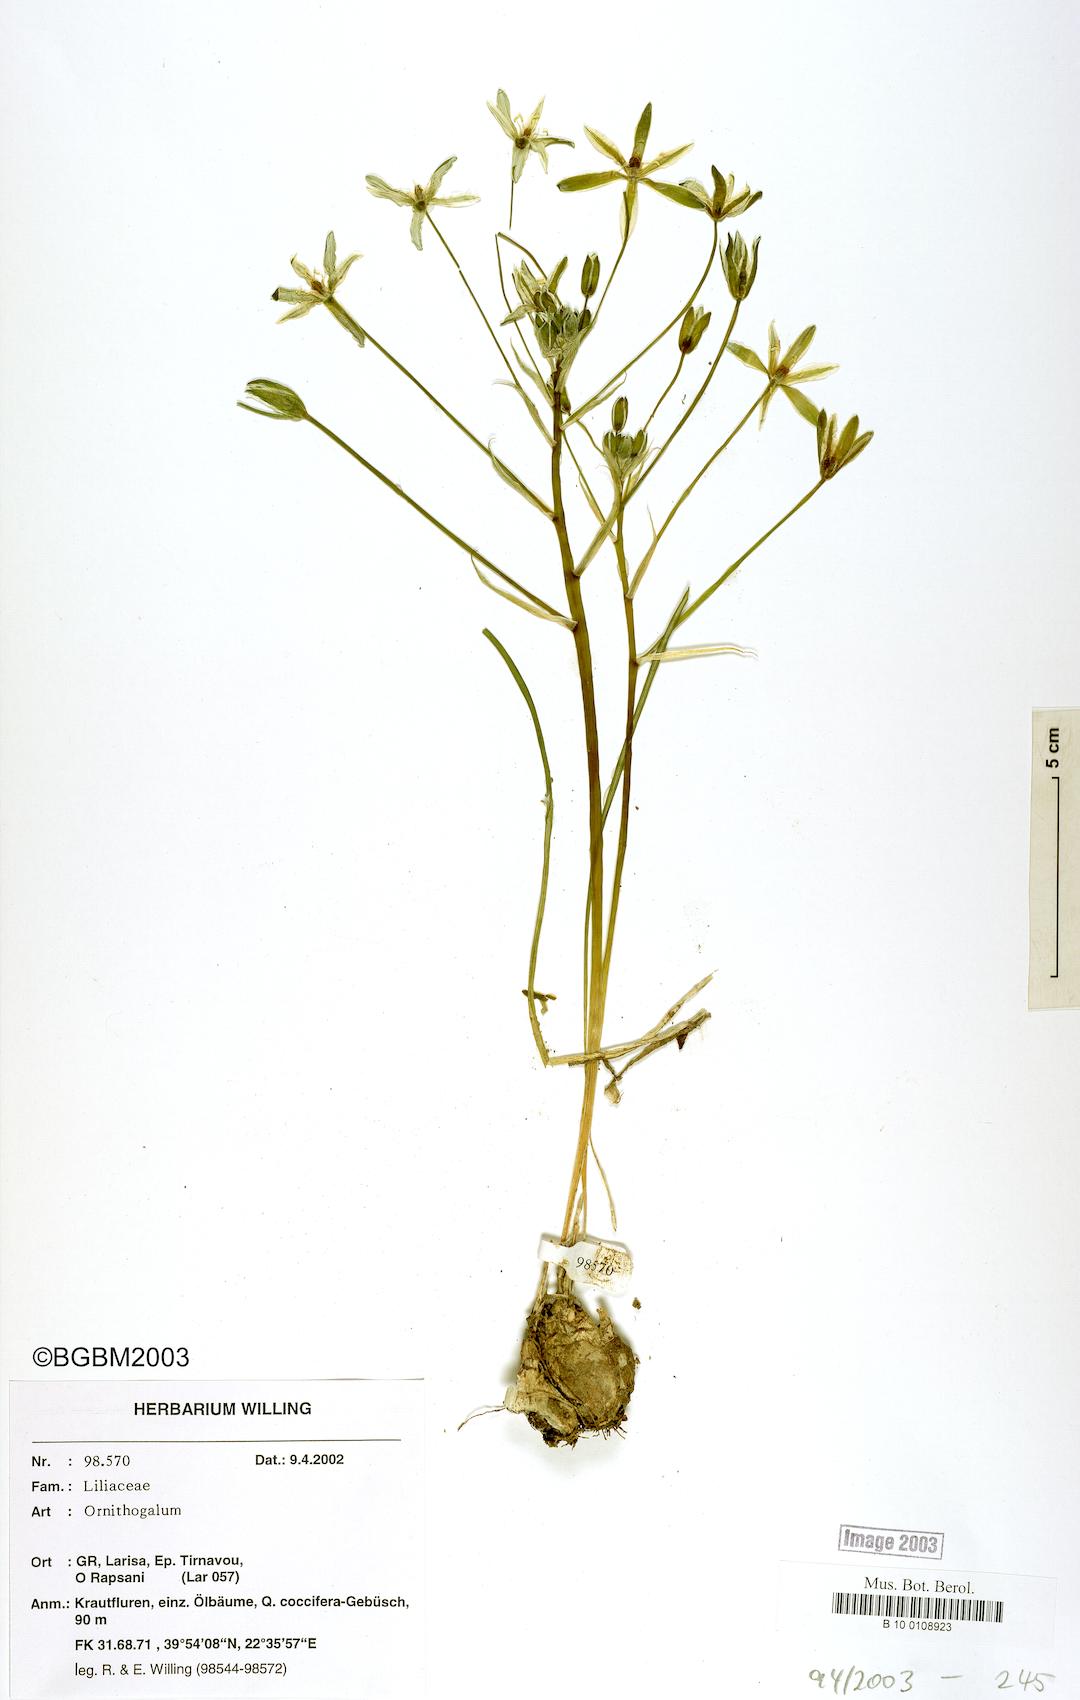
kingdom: Plantae
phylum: Tracheophyta
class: Liliopsida
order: Asparagales
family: Asparagaceae
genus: Ornithogalum
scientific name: Ornithogalum
